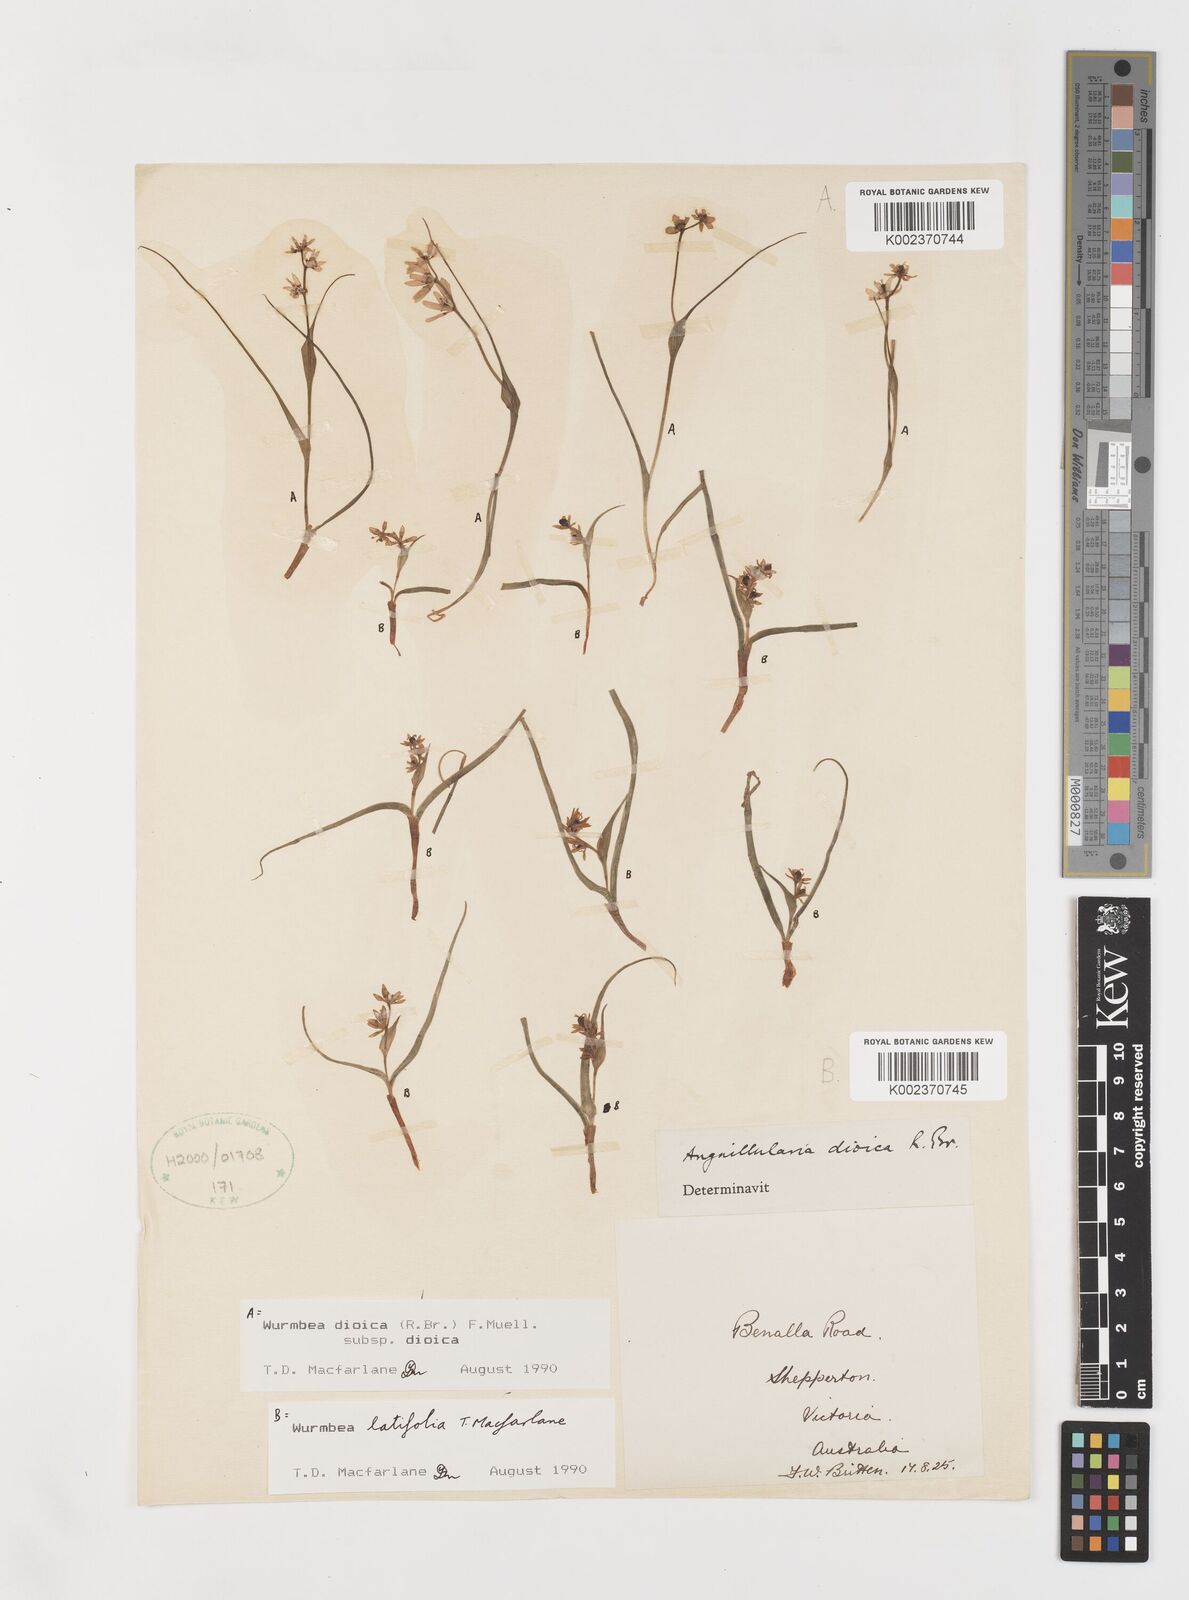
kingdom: Plantae
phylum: Tracheophyta
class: Liliopsida
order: Liliales
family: Colchicaceae
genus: Wurmbea
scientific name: Wurmbea latifolia
